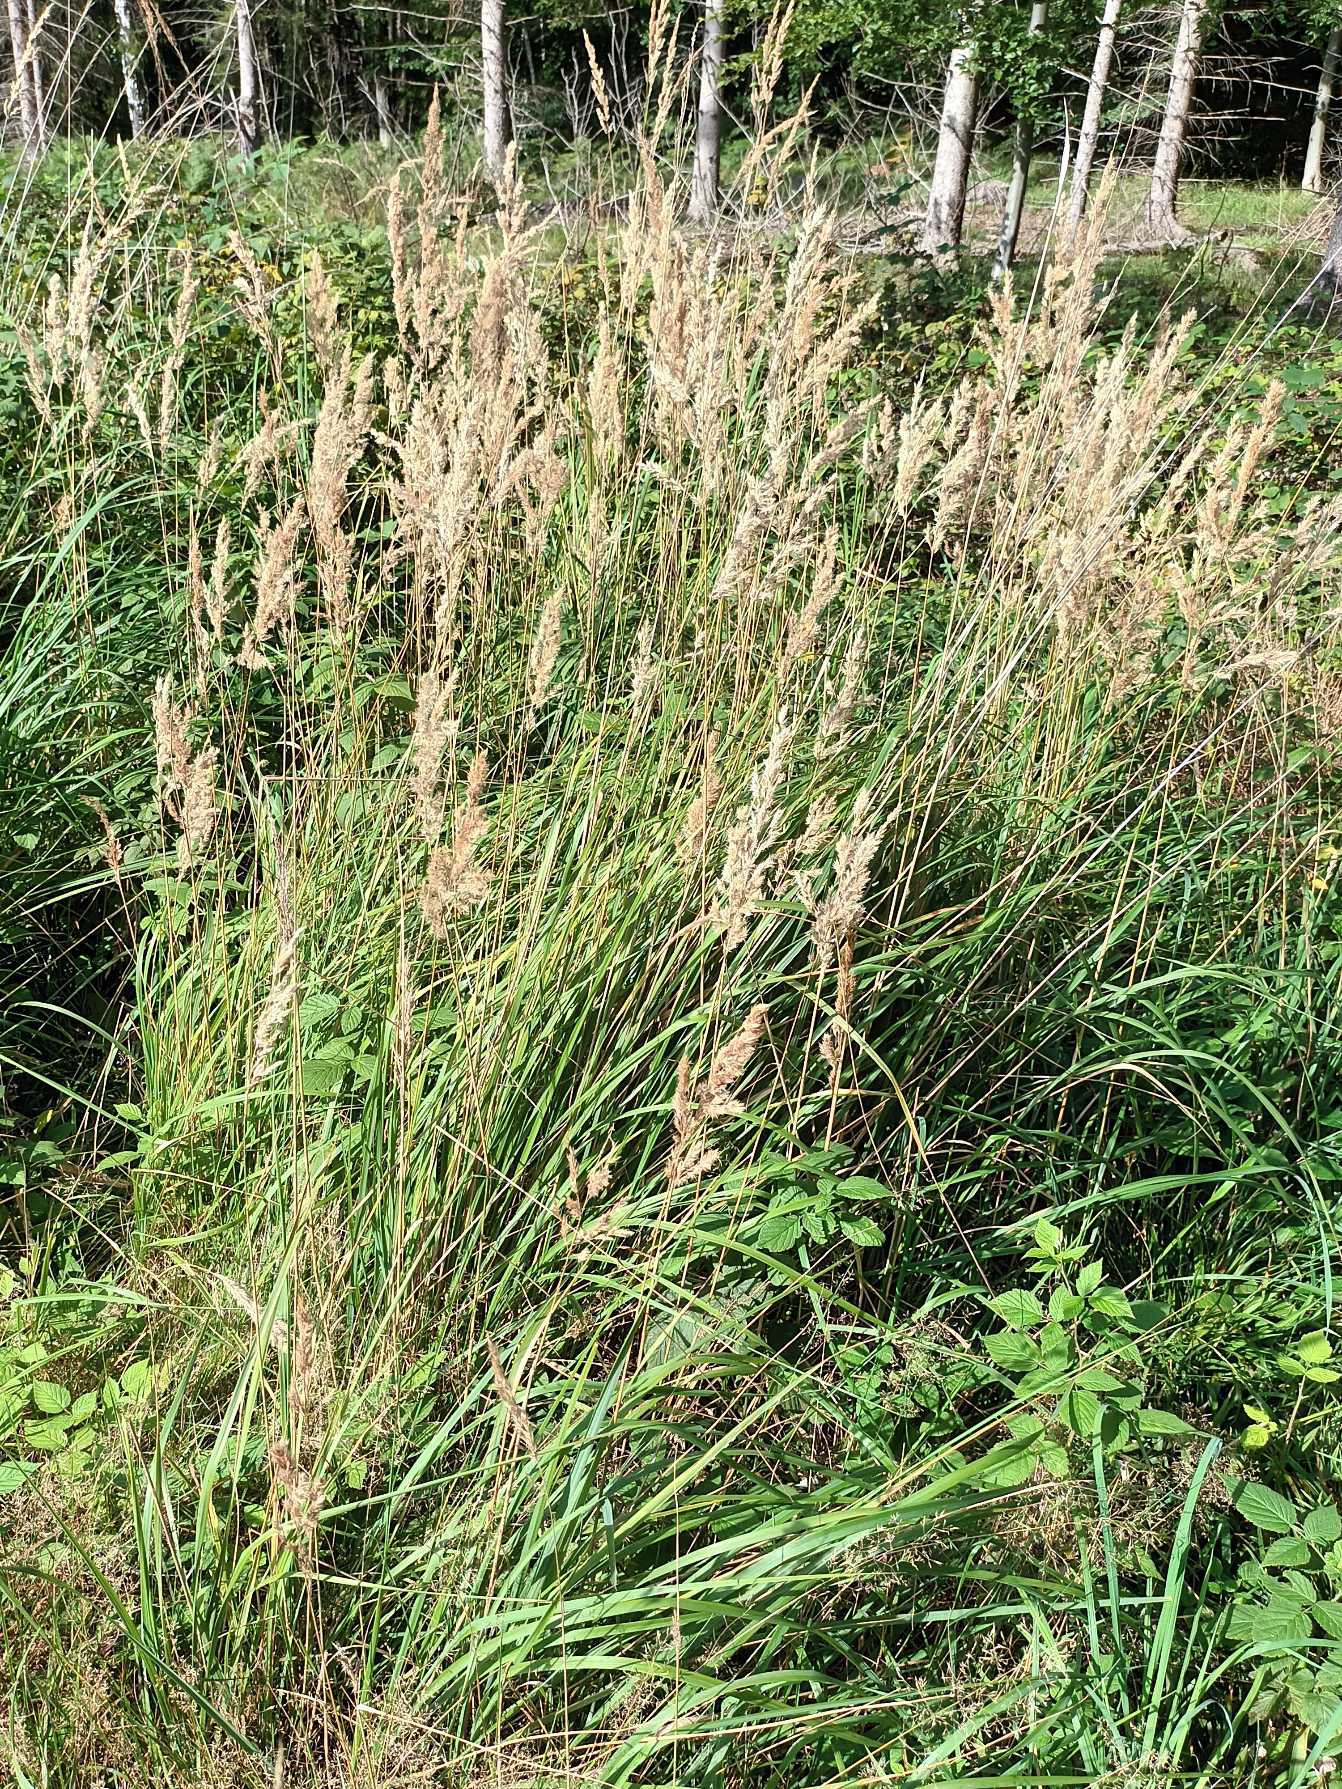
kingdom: Plantae
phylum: Tracheophyta
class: Liliopsida
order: Poales
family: Poaceae
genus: Calamagrostis
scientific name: Calamagrostis epigejos
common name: Bjerg-rørhvene
